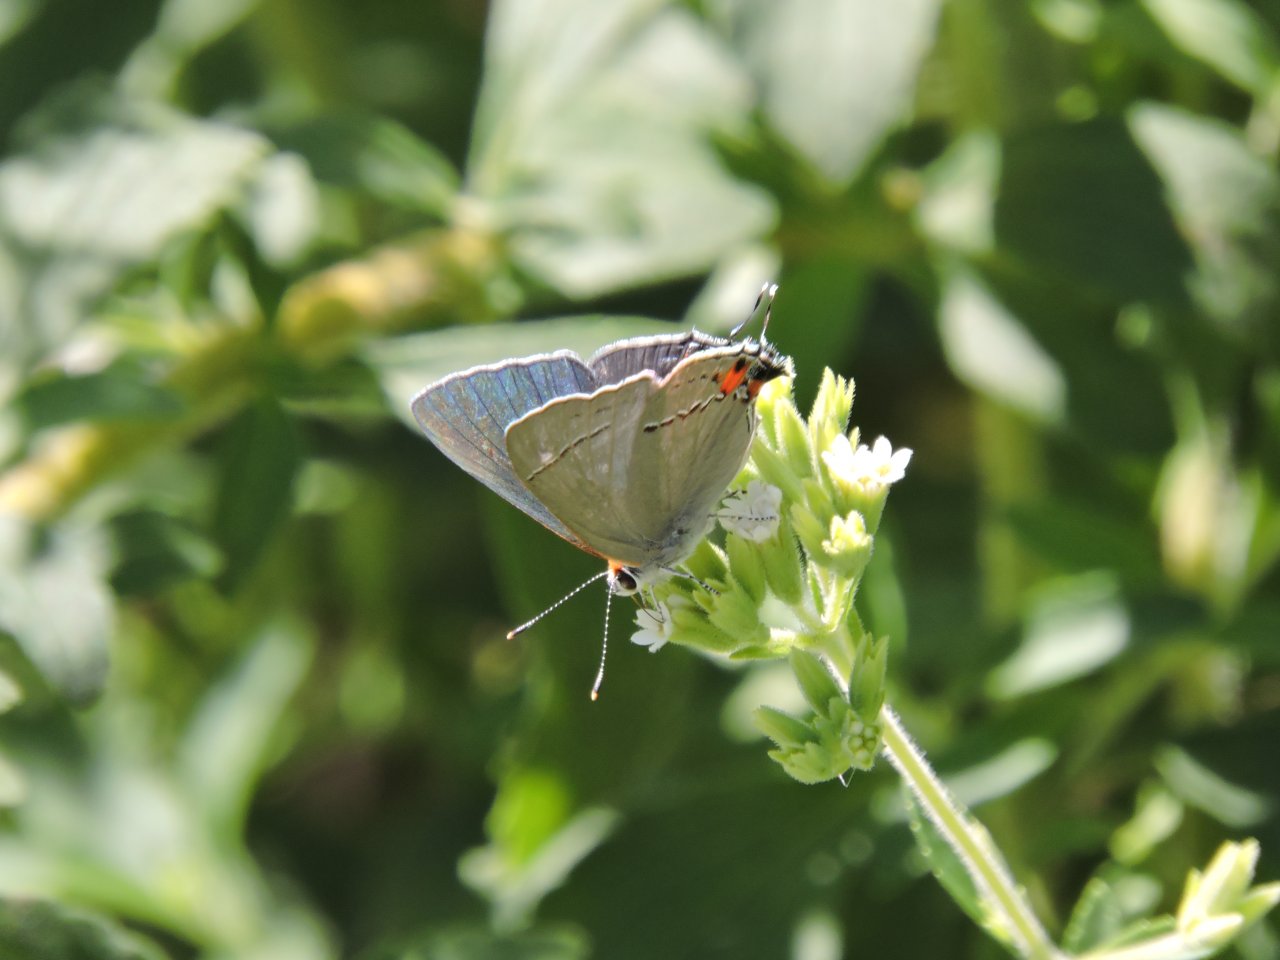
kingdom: Animalia
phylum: Arthropoda
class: Insecta
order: Lepidoptera
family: Lycaenidae
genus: Strymon
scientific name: Strymon melinus
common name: Gray Hairstreak
